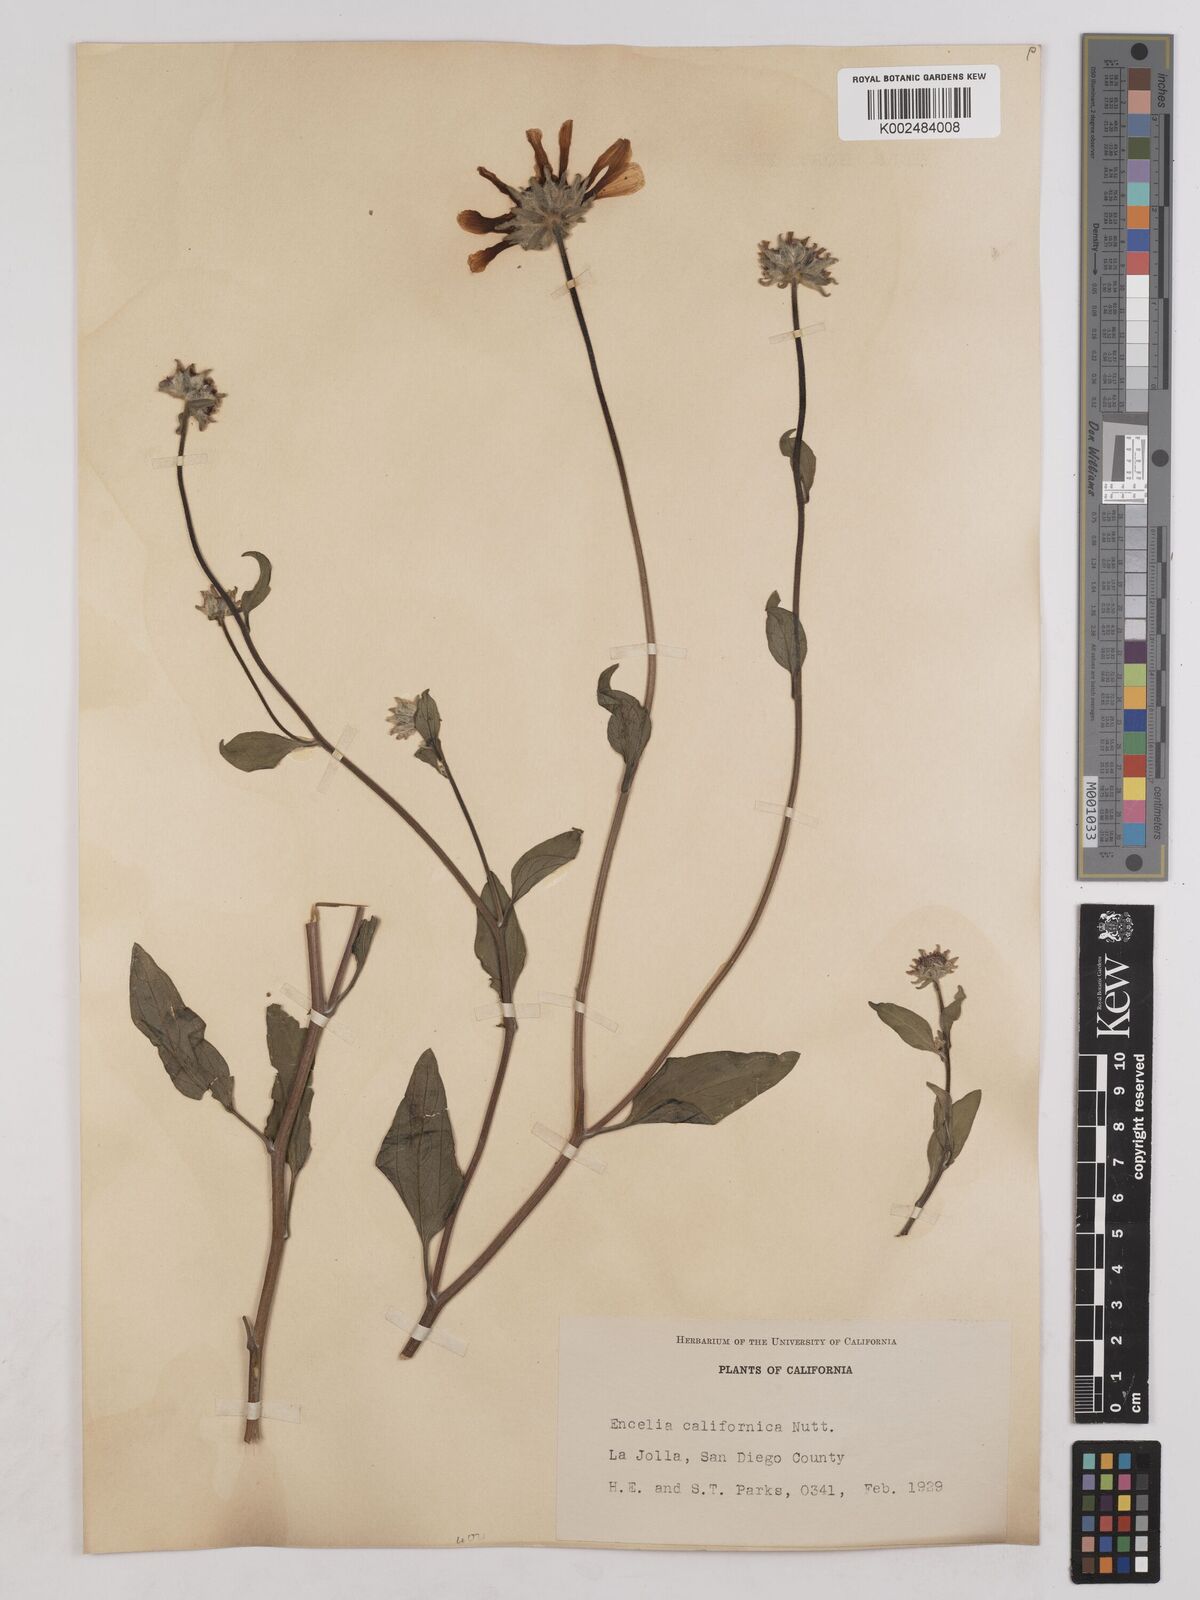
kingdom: Plantae
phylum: Tracheophyta
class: Magnoliopsida
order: Asterales
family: Asteraceae
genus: Encelia
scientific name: Encelia californica
